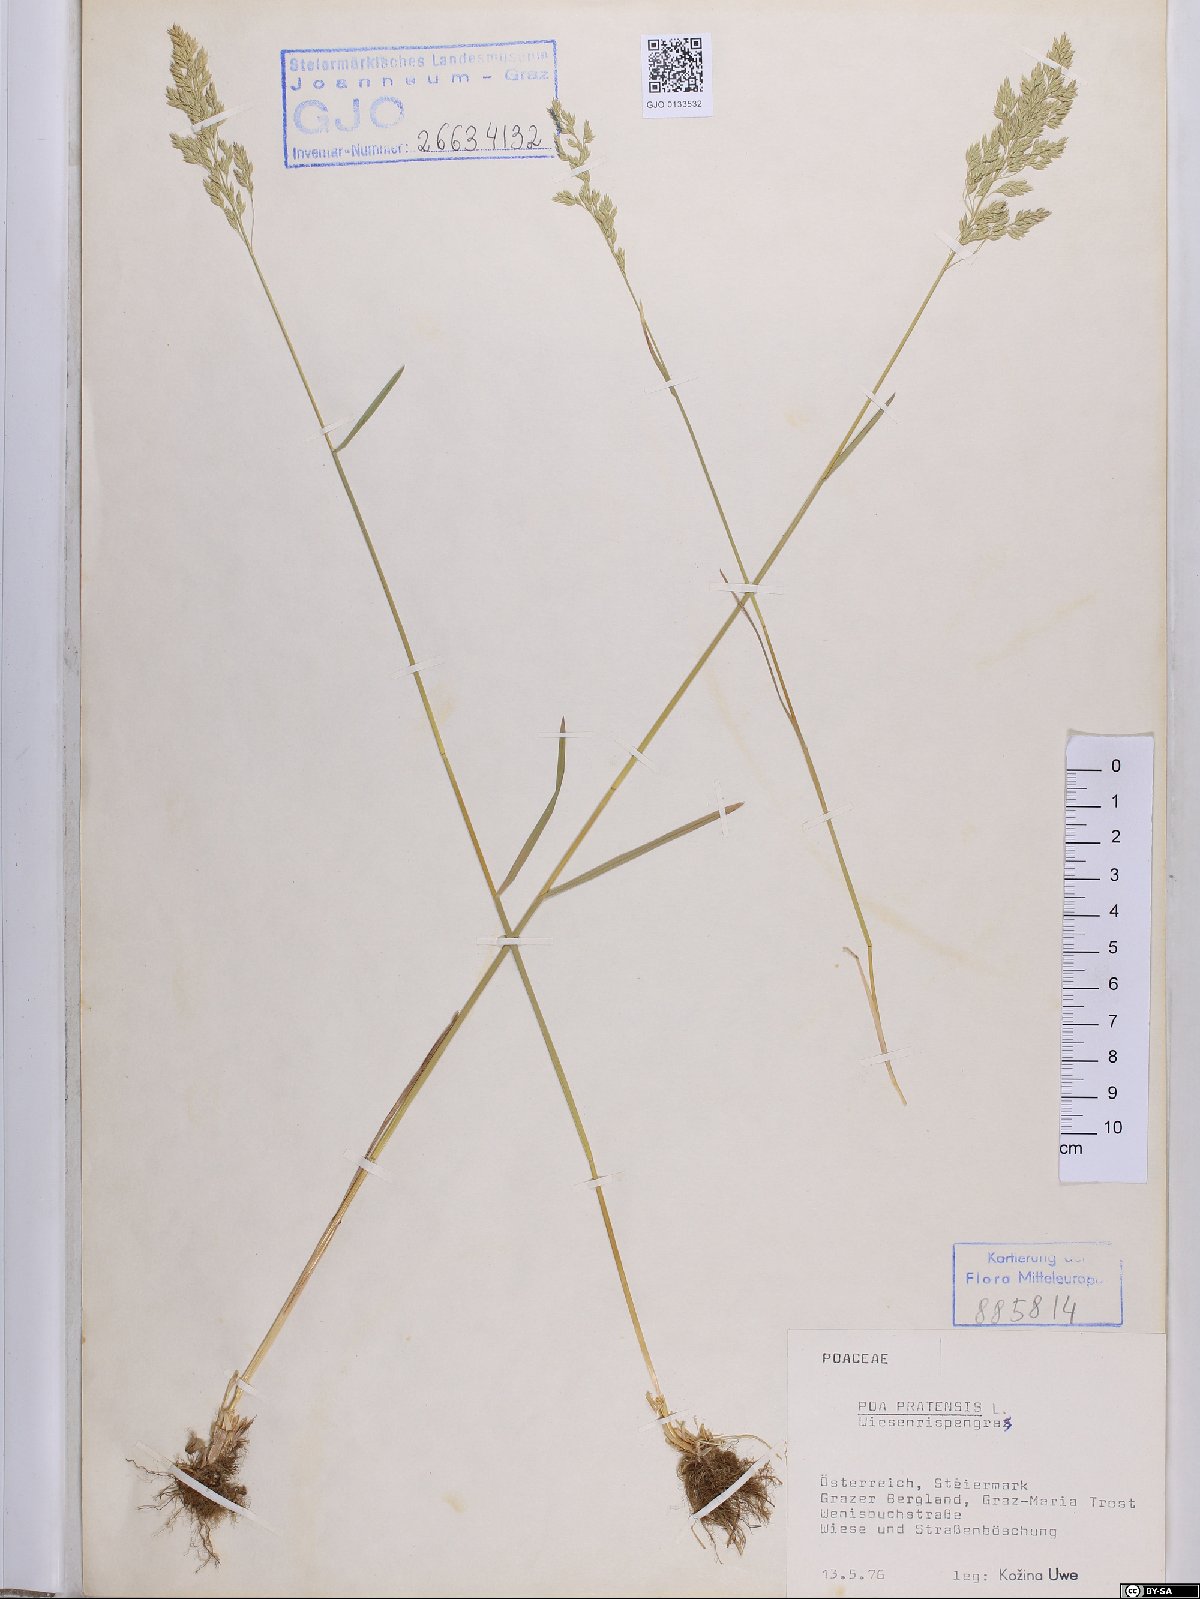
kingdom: Plantae
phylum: Tracheophyta
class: Liliopsida
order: Poales
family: Poaceae
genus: Poa
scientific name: Poa pratensis
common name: Kentucky bluegrass
